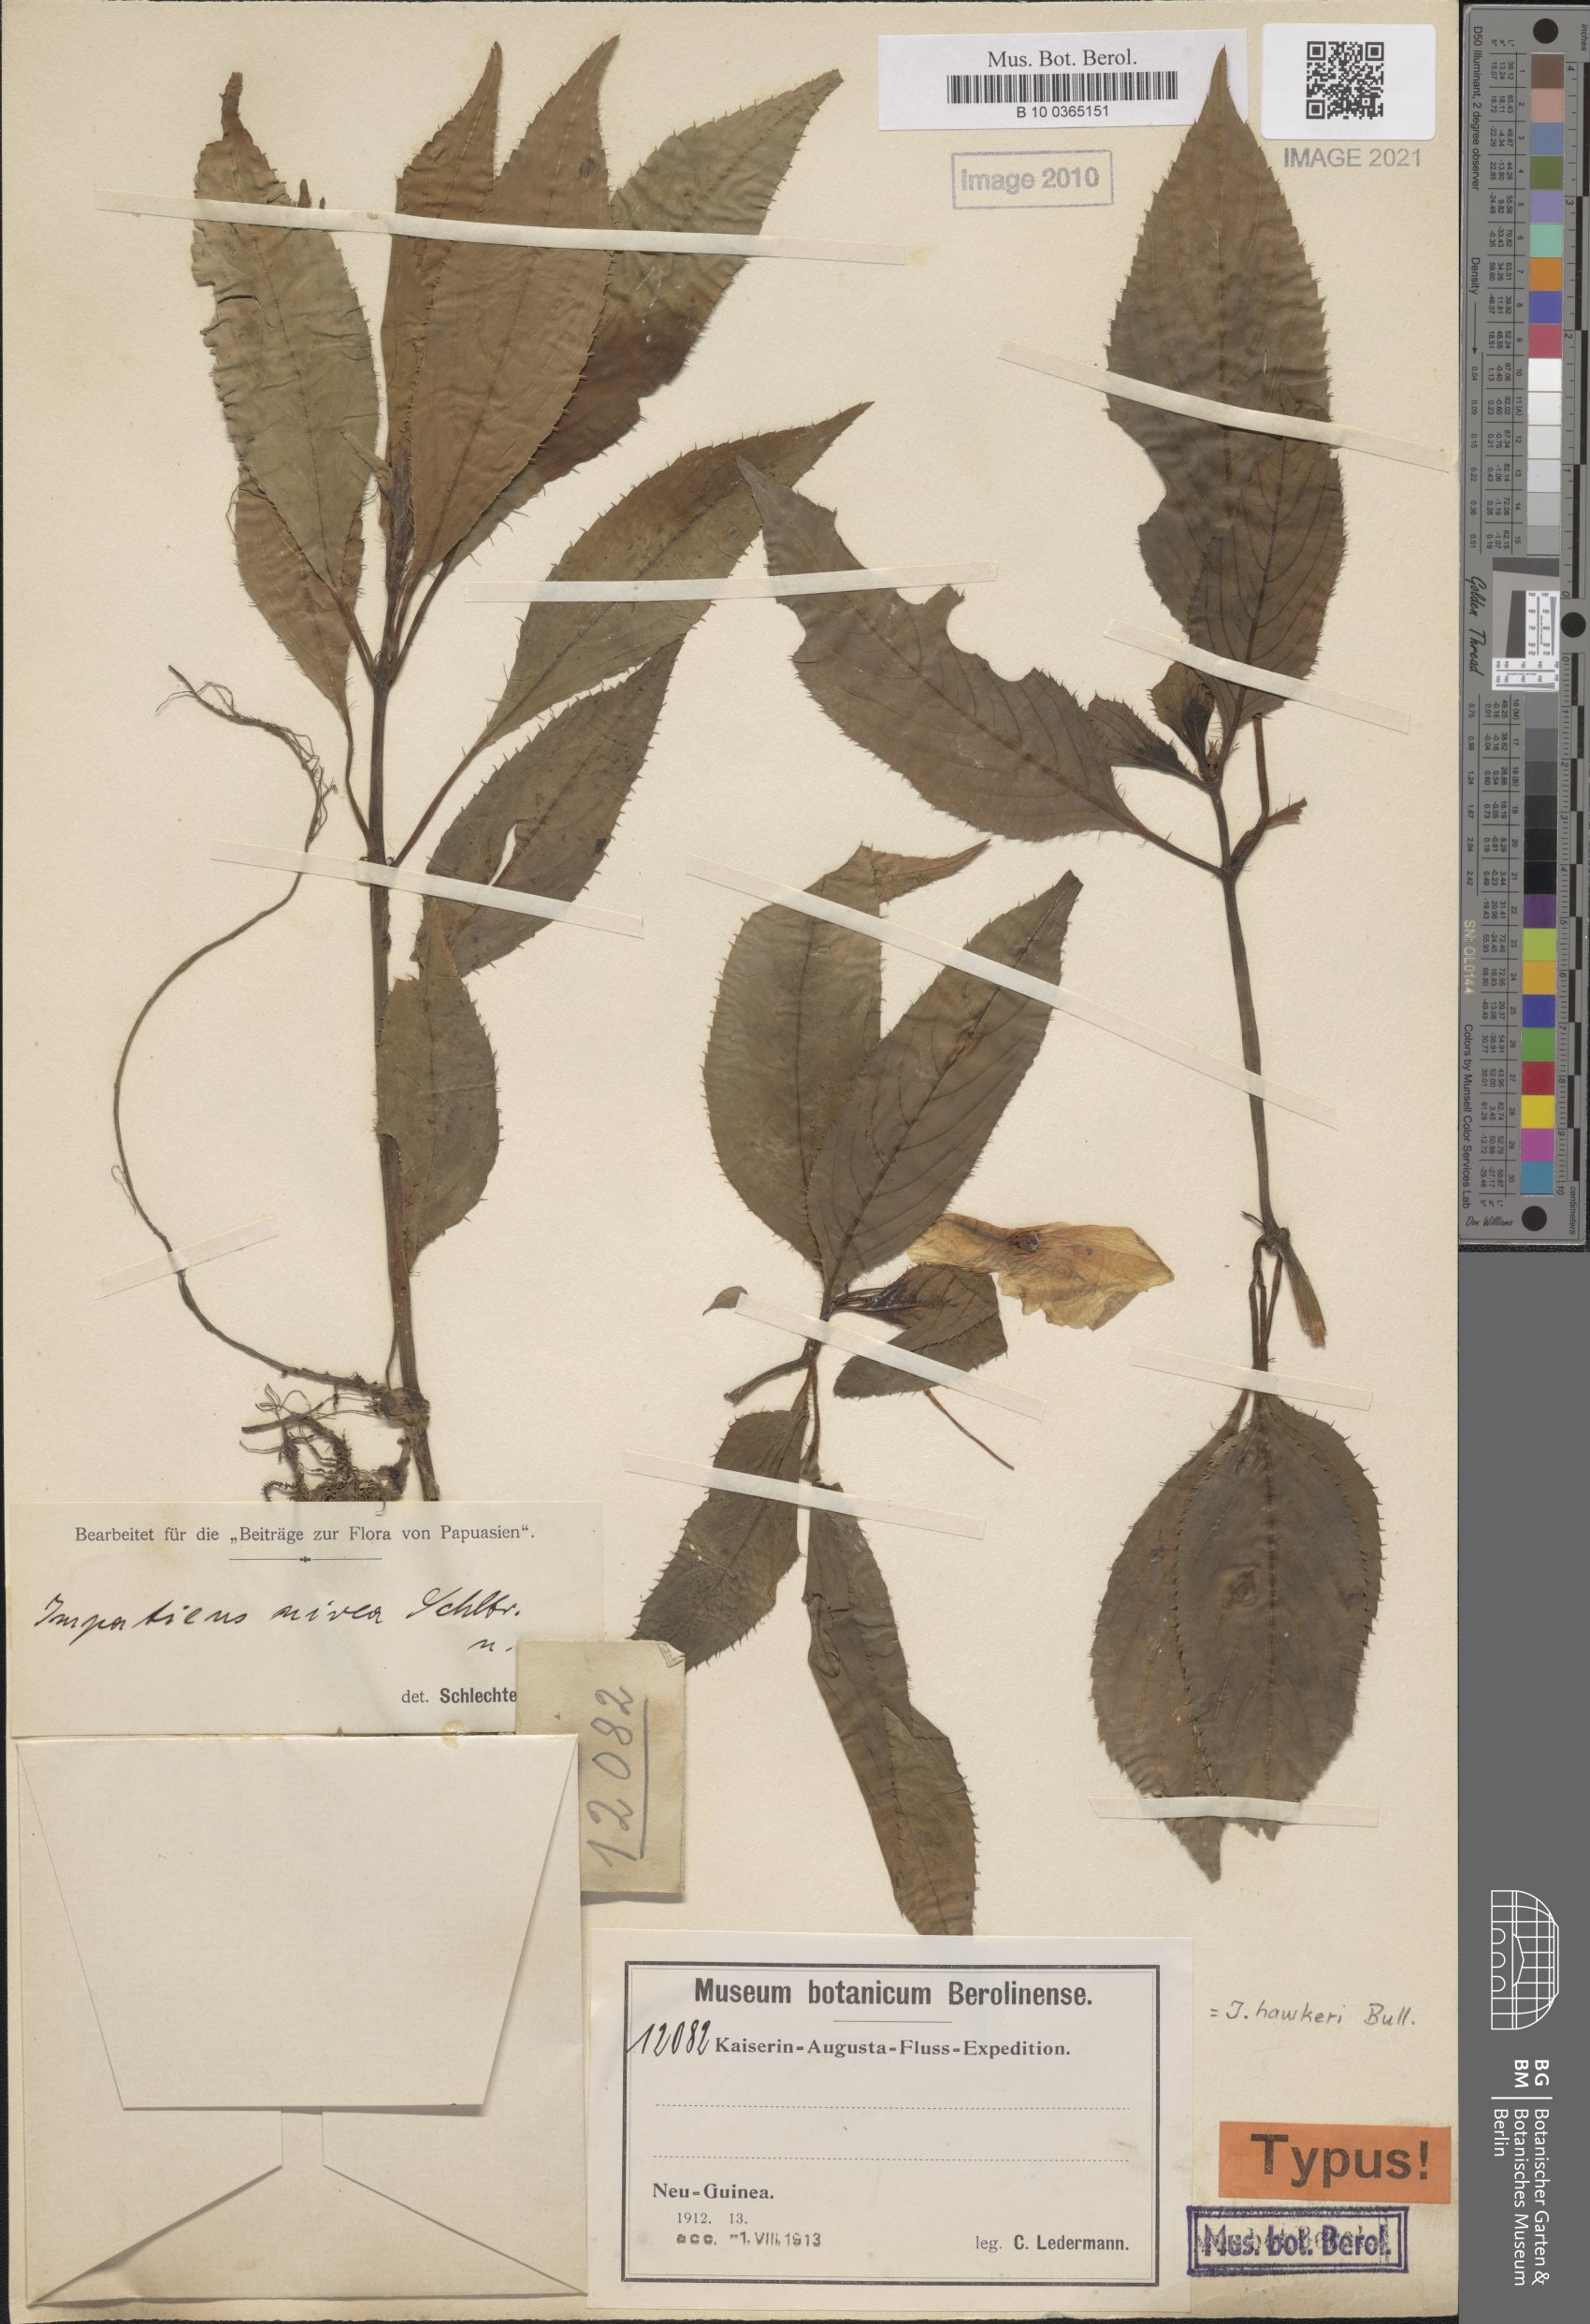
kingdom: Plantae
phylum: Tracheophyta
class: Magnoliopsida
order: Ericales
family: Balsaminaceae
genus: Impatiens
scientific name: Impatiens hawkeri
